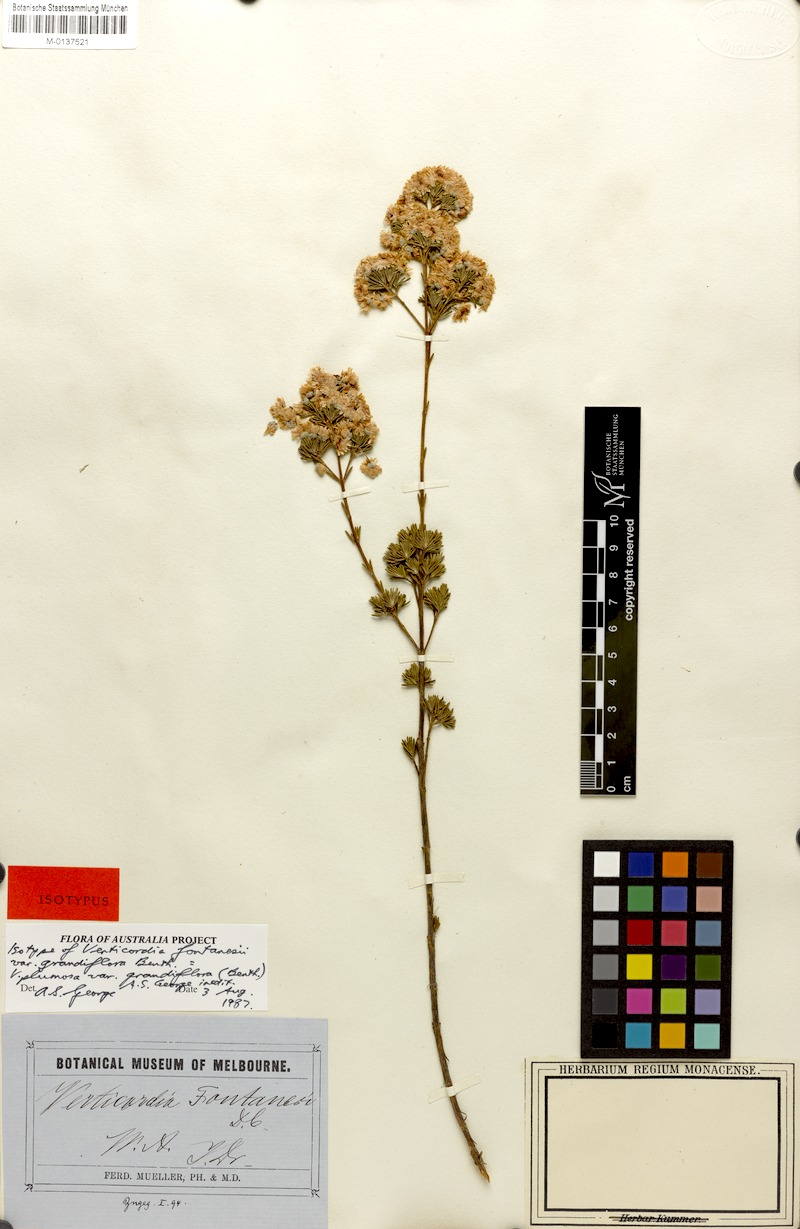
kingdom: Plantae
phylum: Tracheophyta
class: Magnoliopsida
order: Myrtales
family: Myrtaceae
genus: Verticordia
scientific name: Verticordia plumosa
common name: Plume feather-flower
